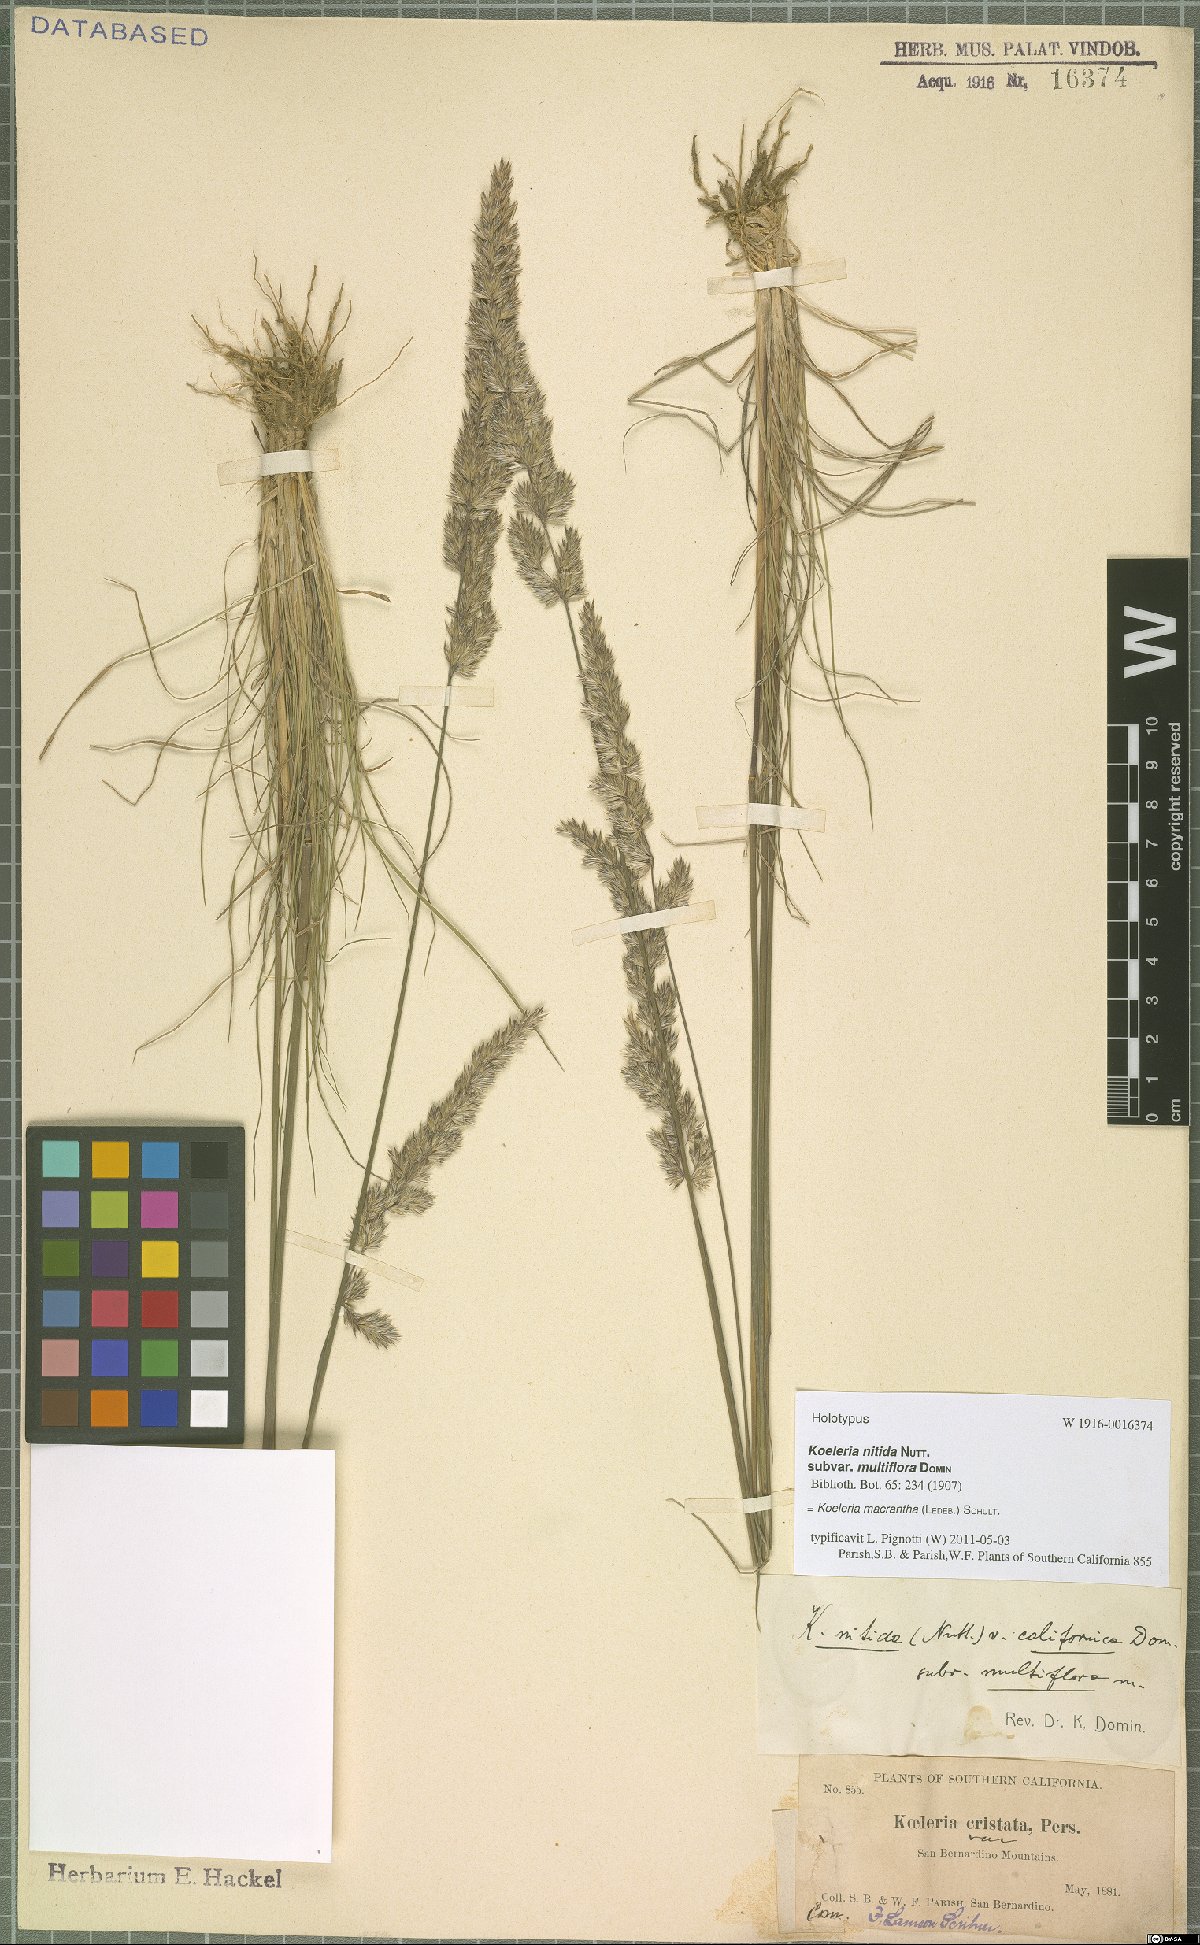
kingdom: Plantae
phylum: Tracheophyta
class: Liliopsida
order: Poales
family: Poaceae
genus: Koeleria
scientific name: Koeleria macrantha
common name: Crested hair-grass
